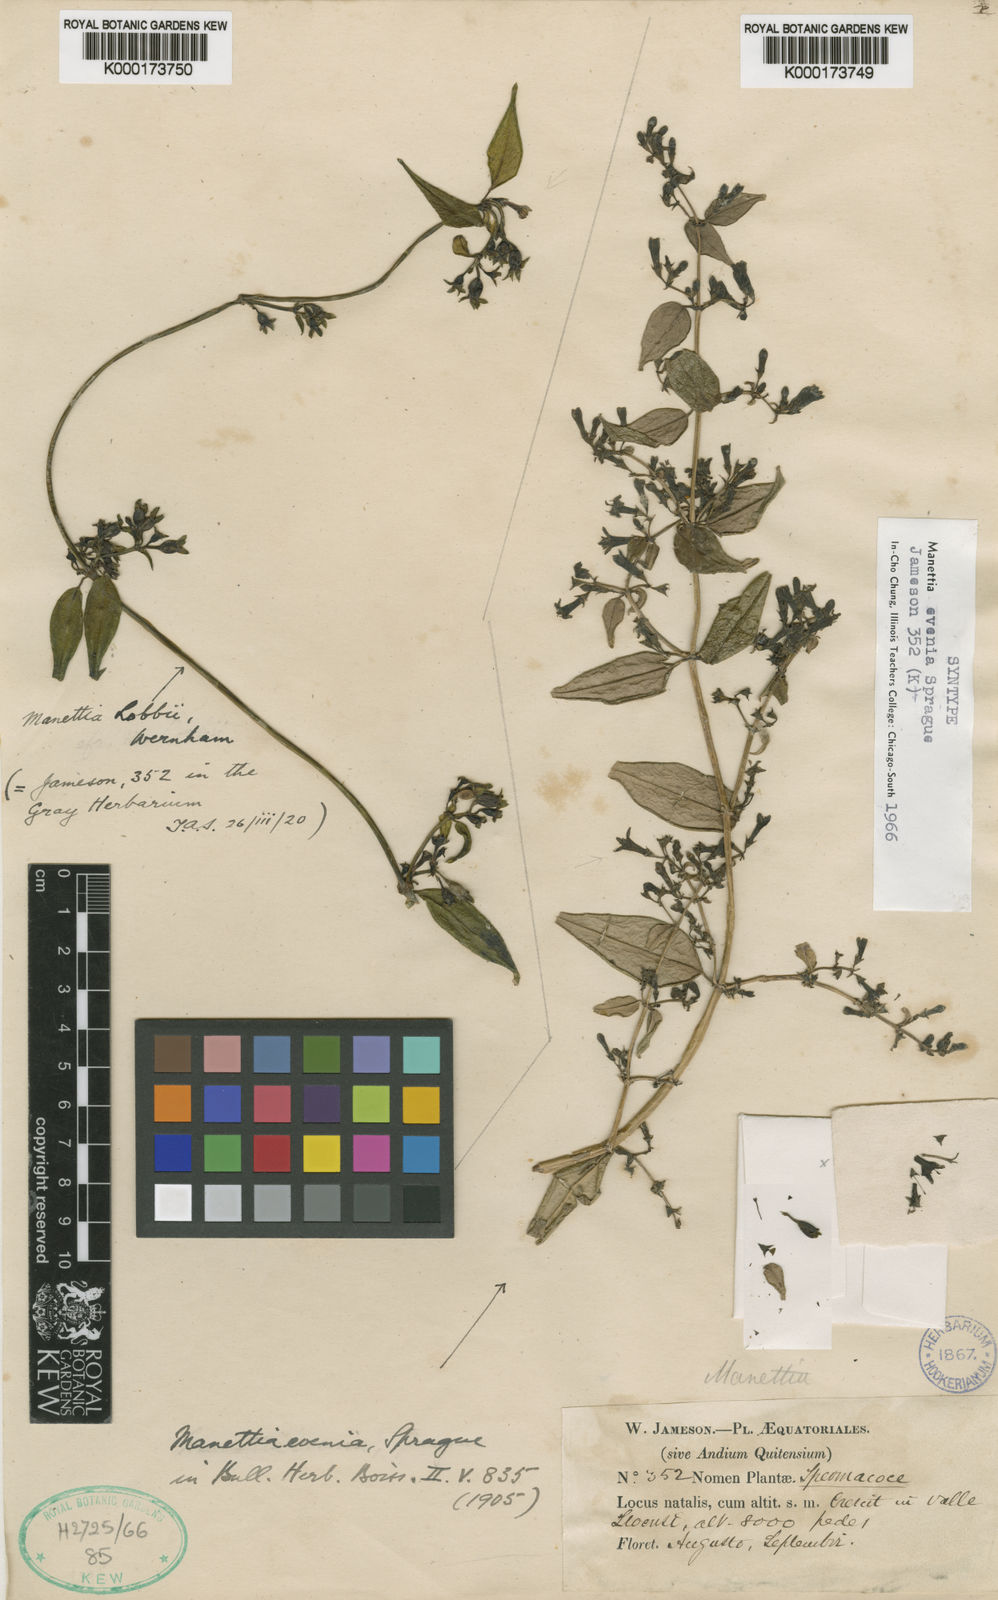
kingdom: Plantae
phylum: Tracheophyta
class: Magnoliopsida
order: Gentianales
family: Rubiaceae
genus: Manettia
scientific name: Manettia evenia
